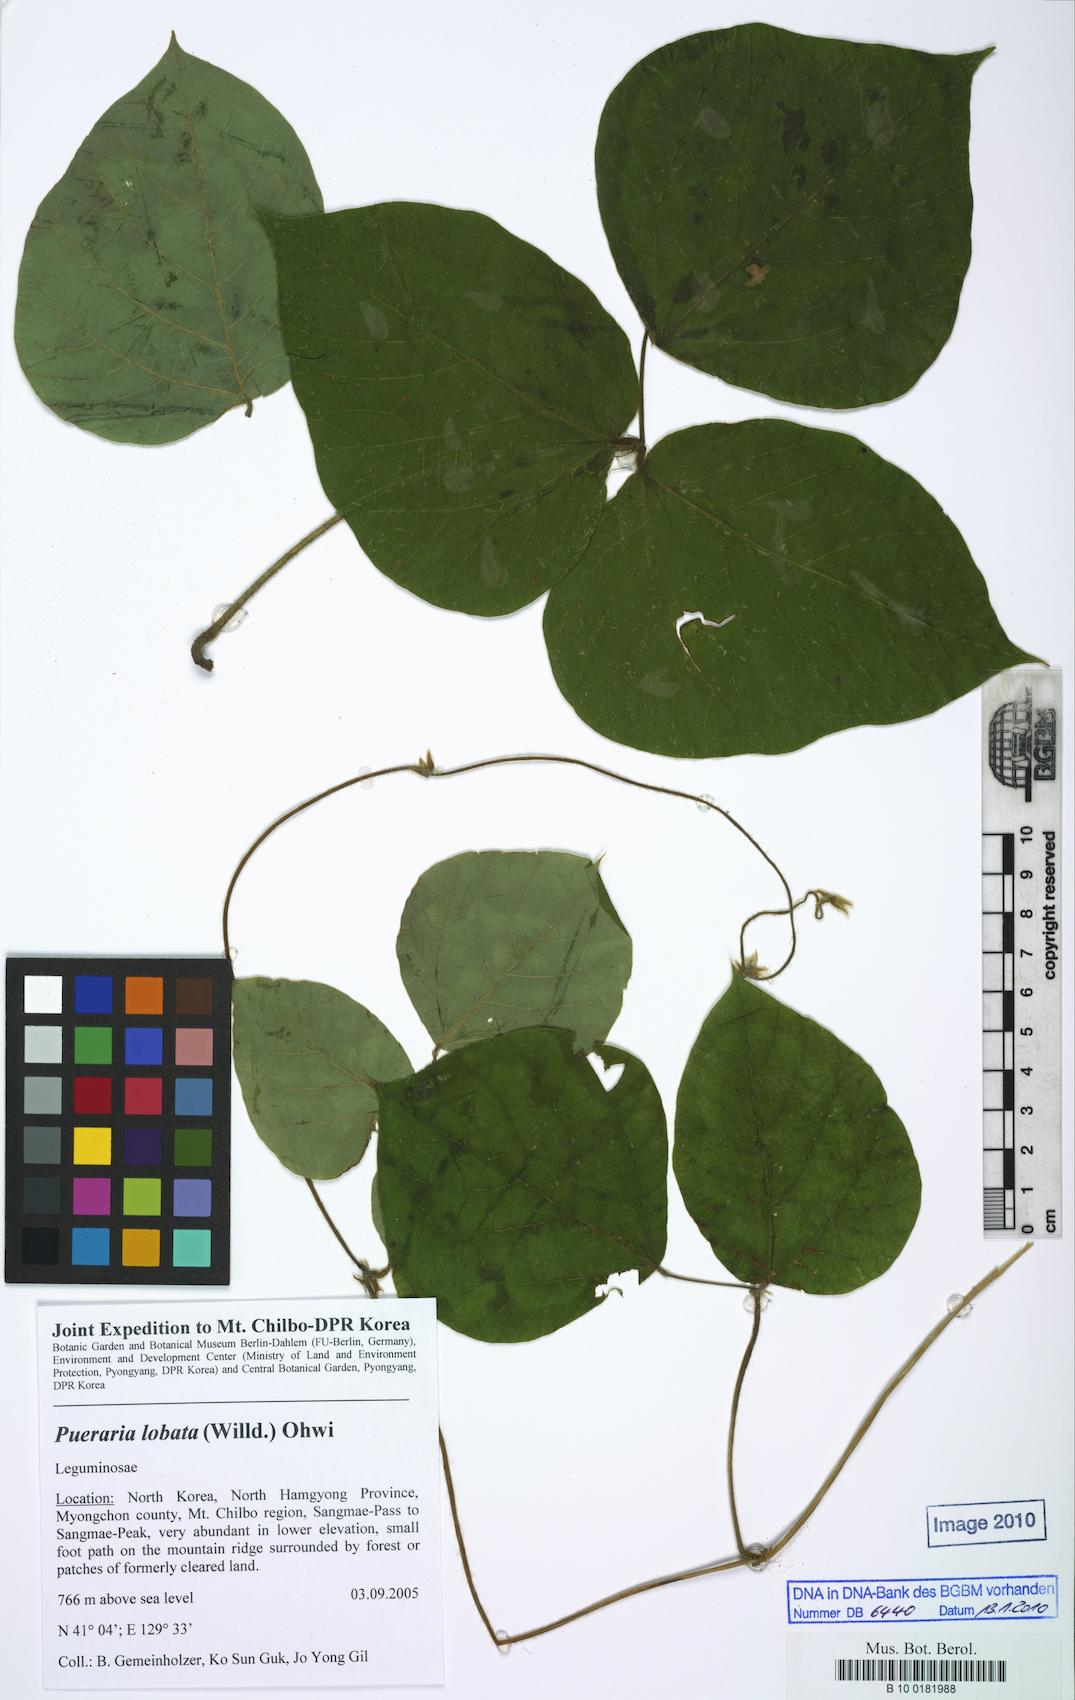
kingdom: Plantae
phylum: Tracheophyta
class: Magnoliopsida
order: Fabales
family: Fabaceae
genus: Pueraria
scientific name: Pueraria montana
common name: Kudzu
